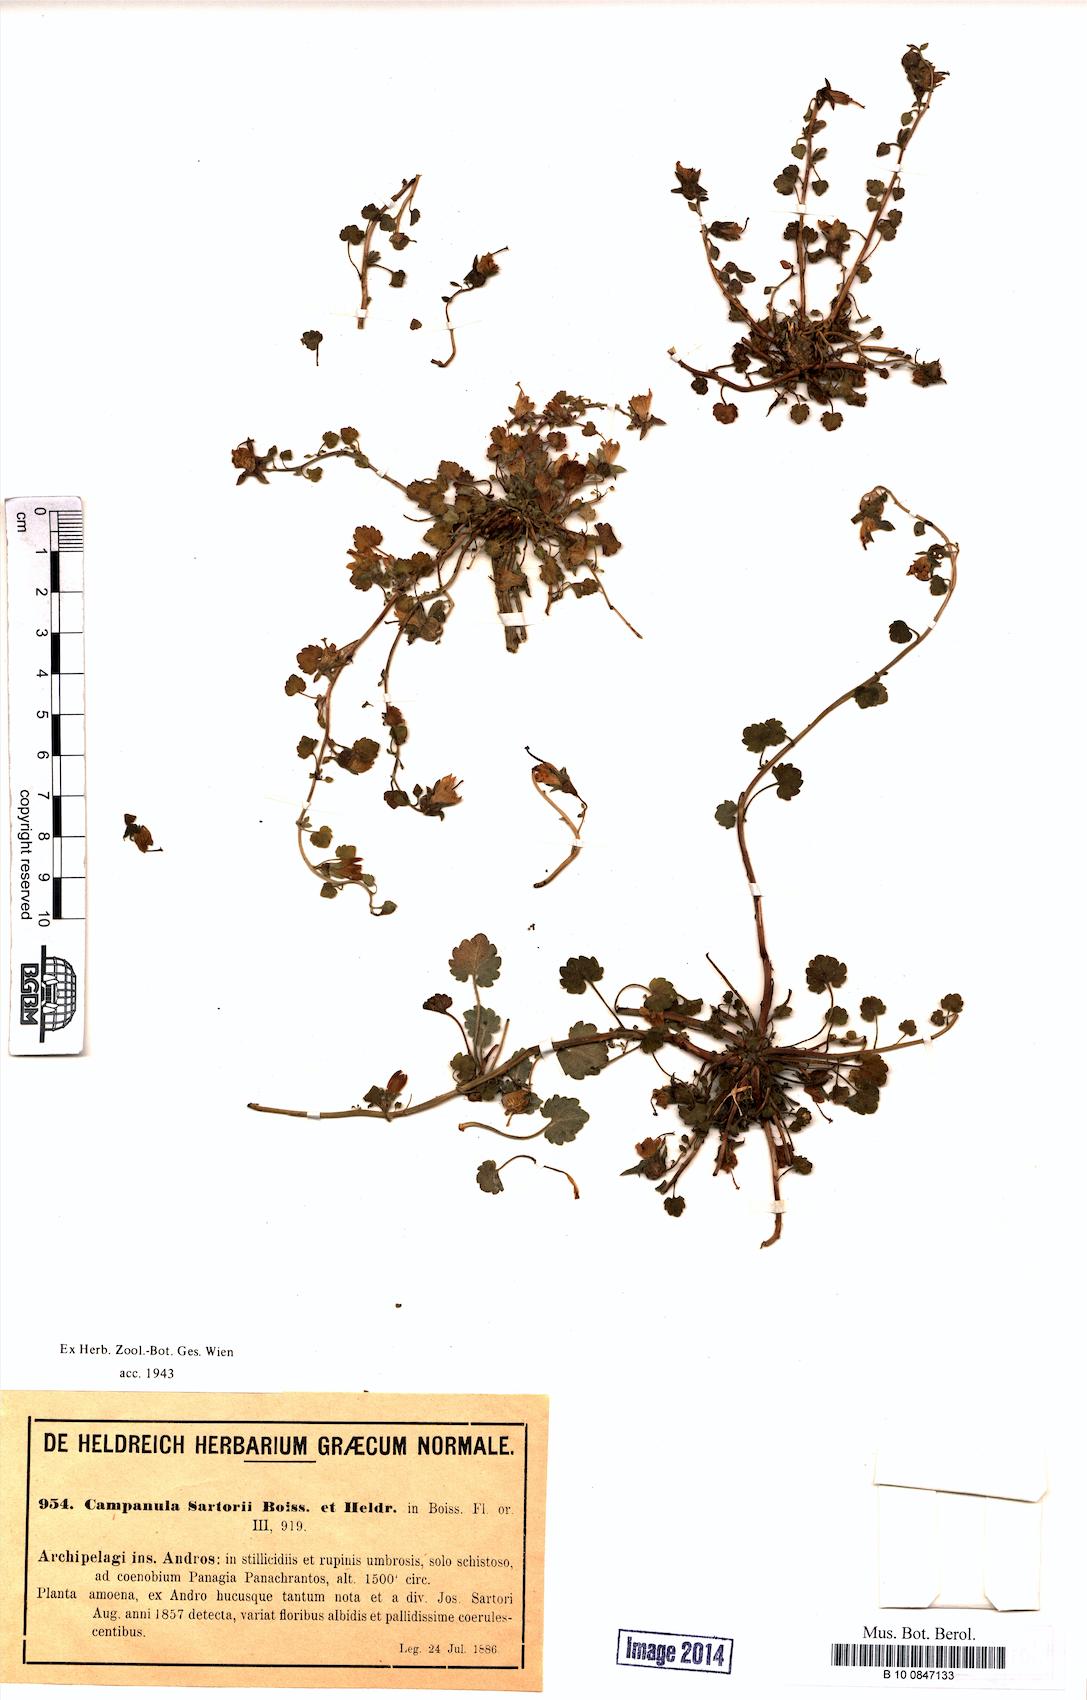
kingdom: Plantae
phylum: Tracheophyta
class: Magnoliopsida
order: Asterales
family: Campanulaceae
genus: Campanula
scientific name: Campanula sartorii
